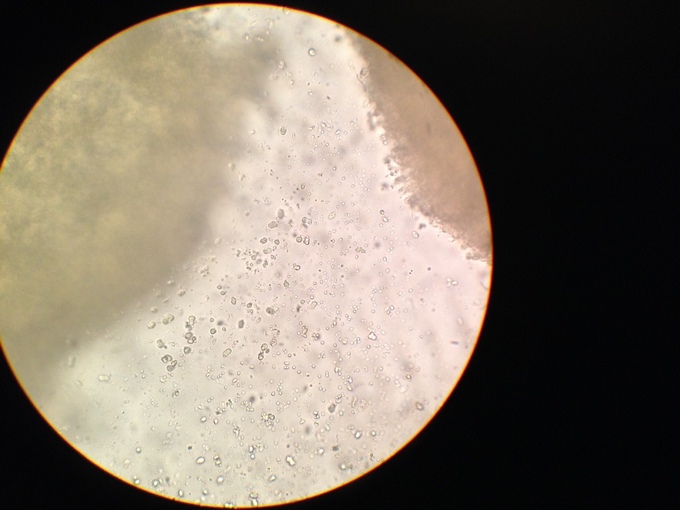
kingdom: Fungi
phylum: Basidiomycota
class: Agaricomycetes
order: Agaricales
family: Hygrophoraceae
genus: Hygrocybe
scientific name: Hygrocybe mucronella
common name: bitter vokshat
